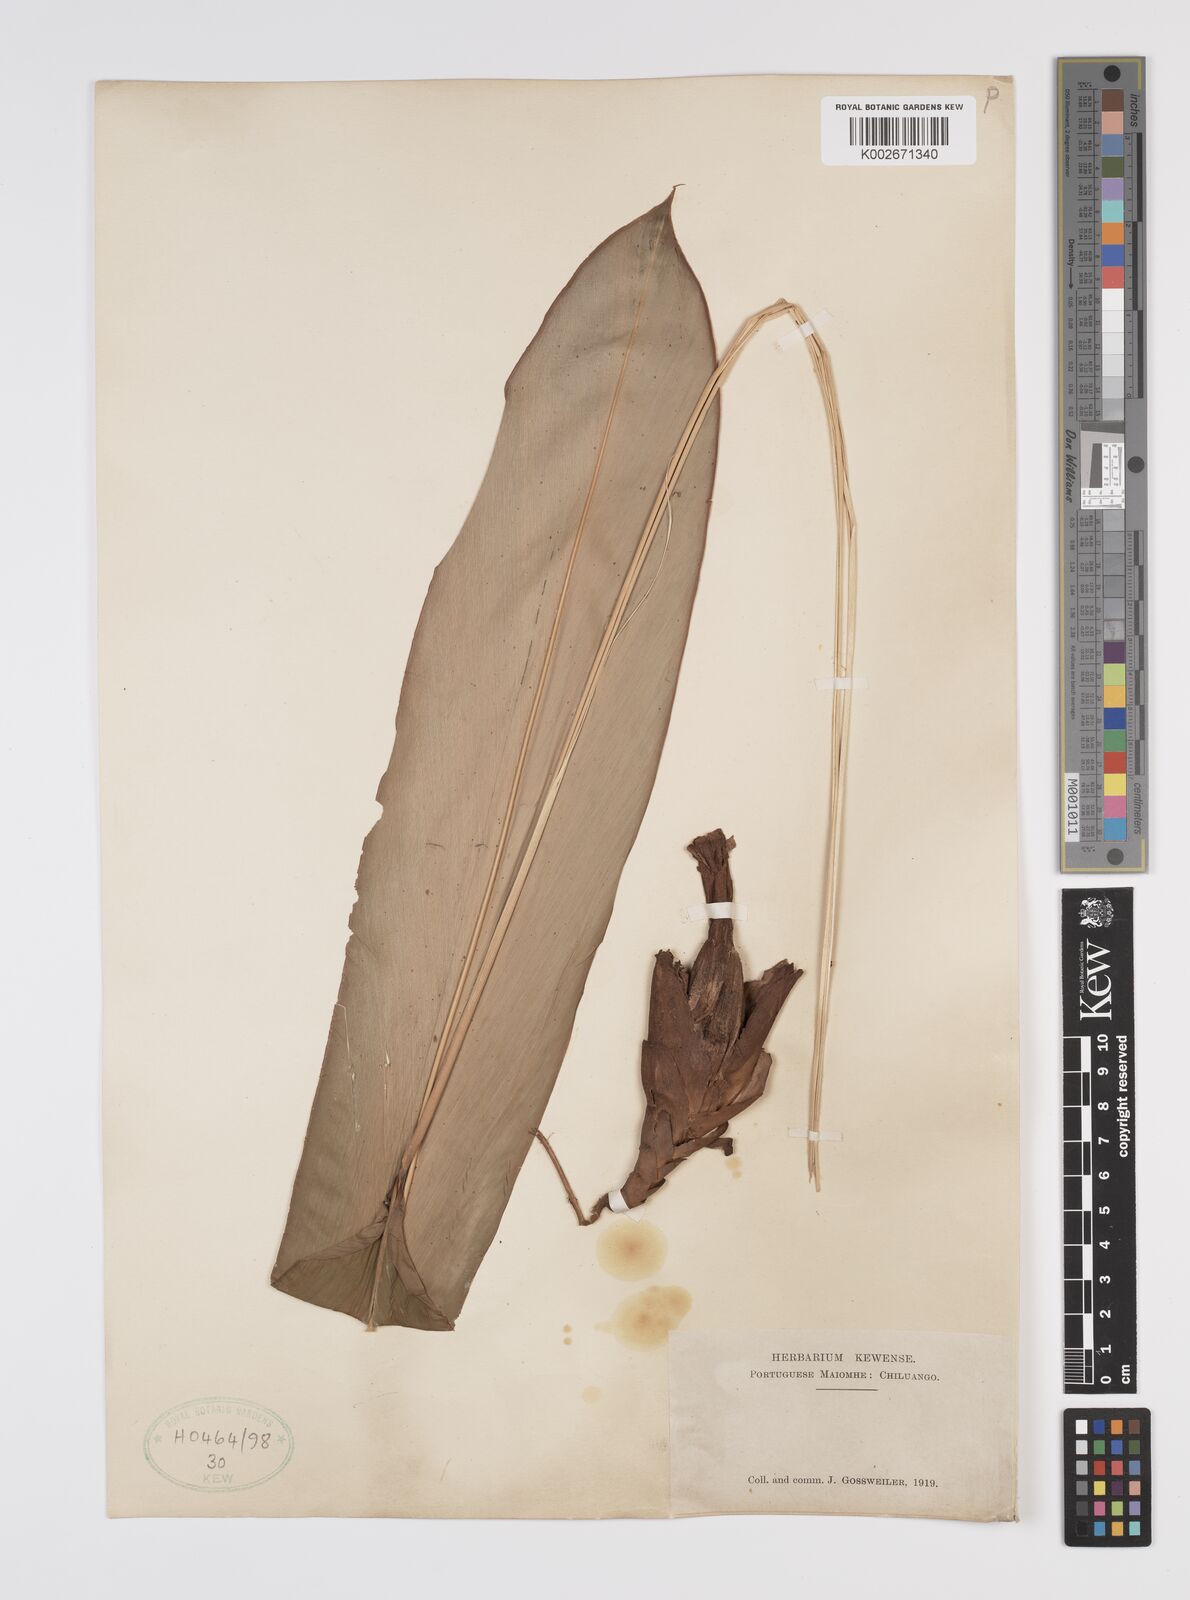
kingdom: Plantae
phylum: Tracheophyta
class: Liliopsida
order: Zingiberales
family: Zingiberaceae
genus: Aframomum
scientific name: Aframomum
